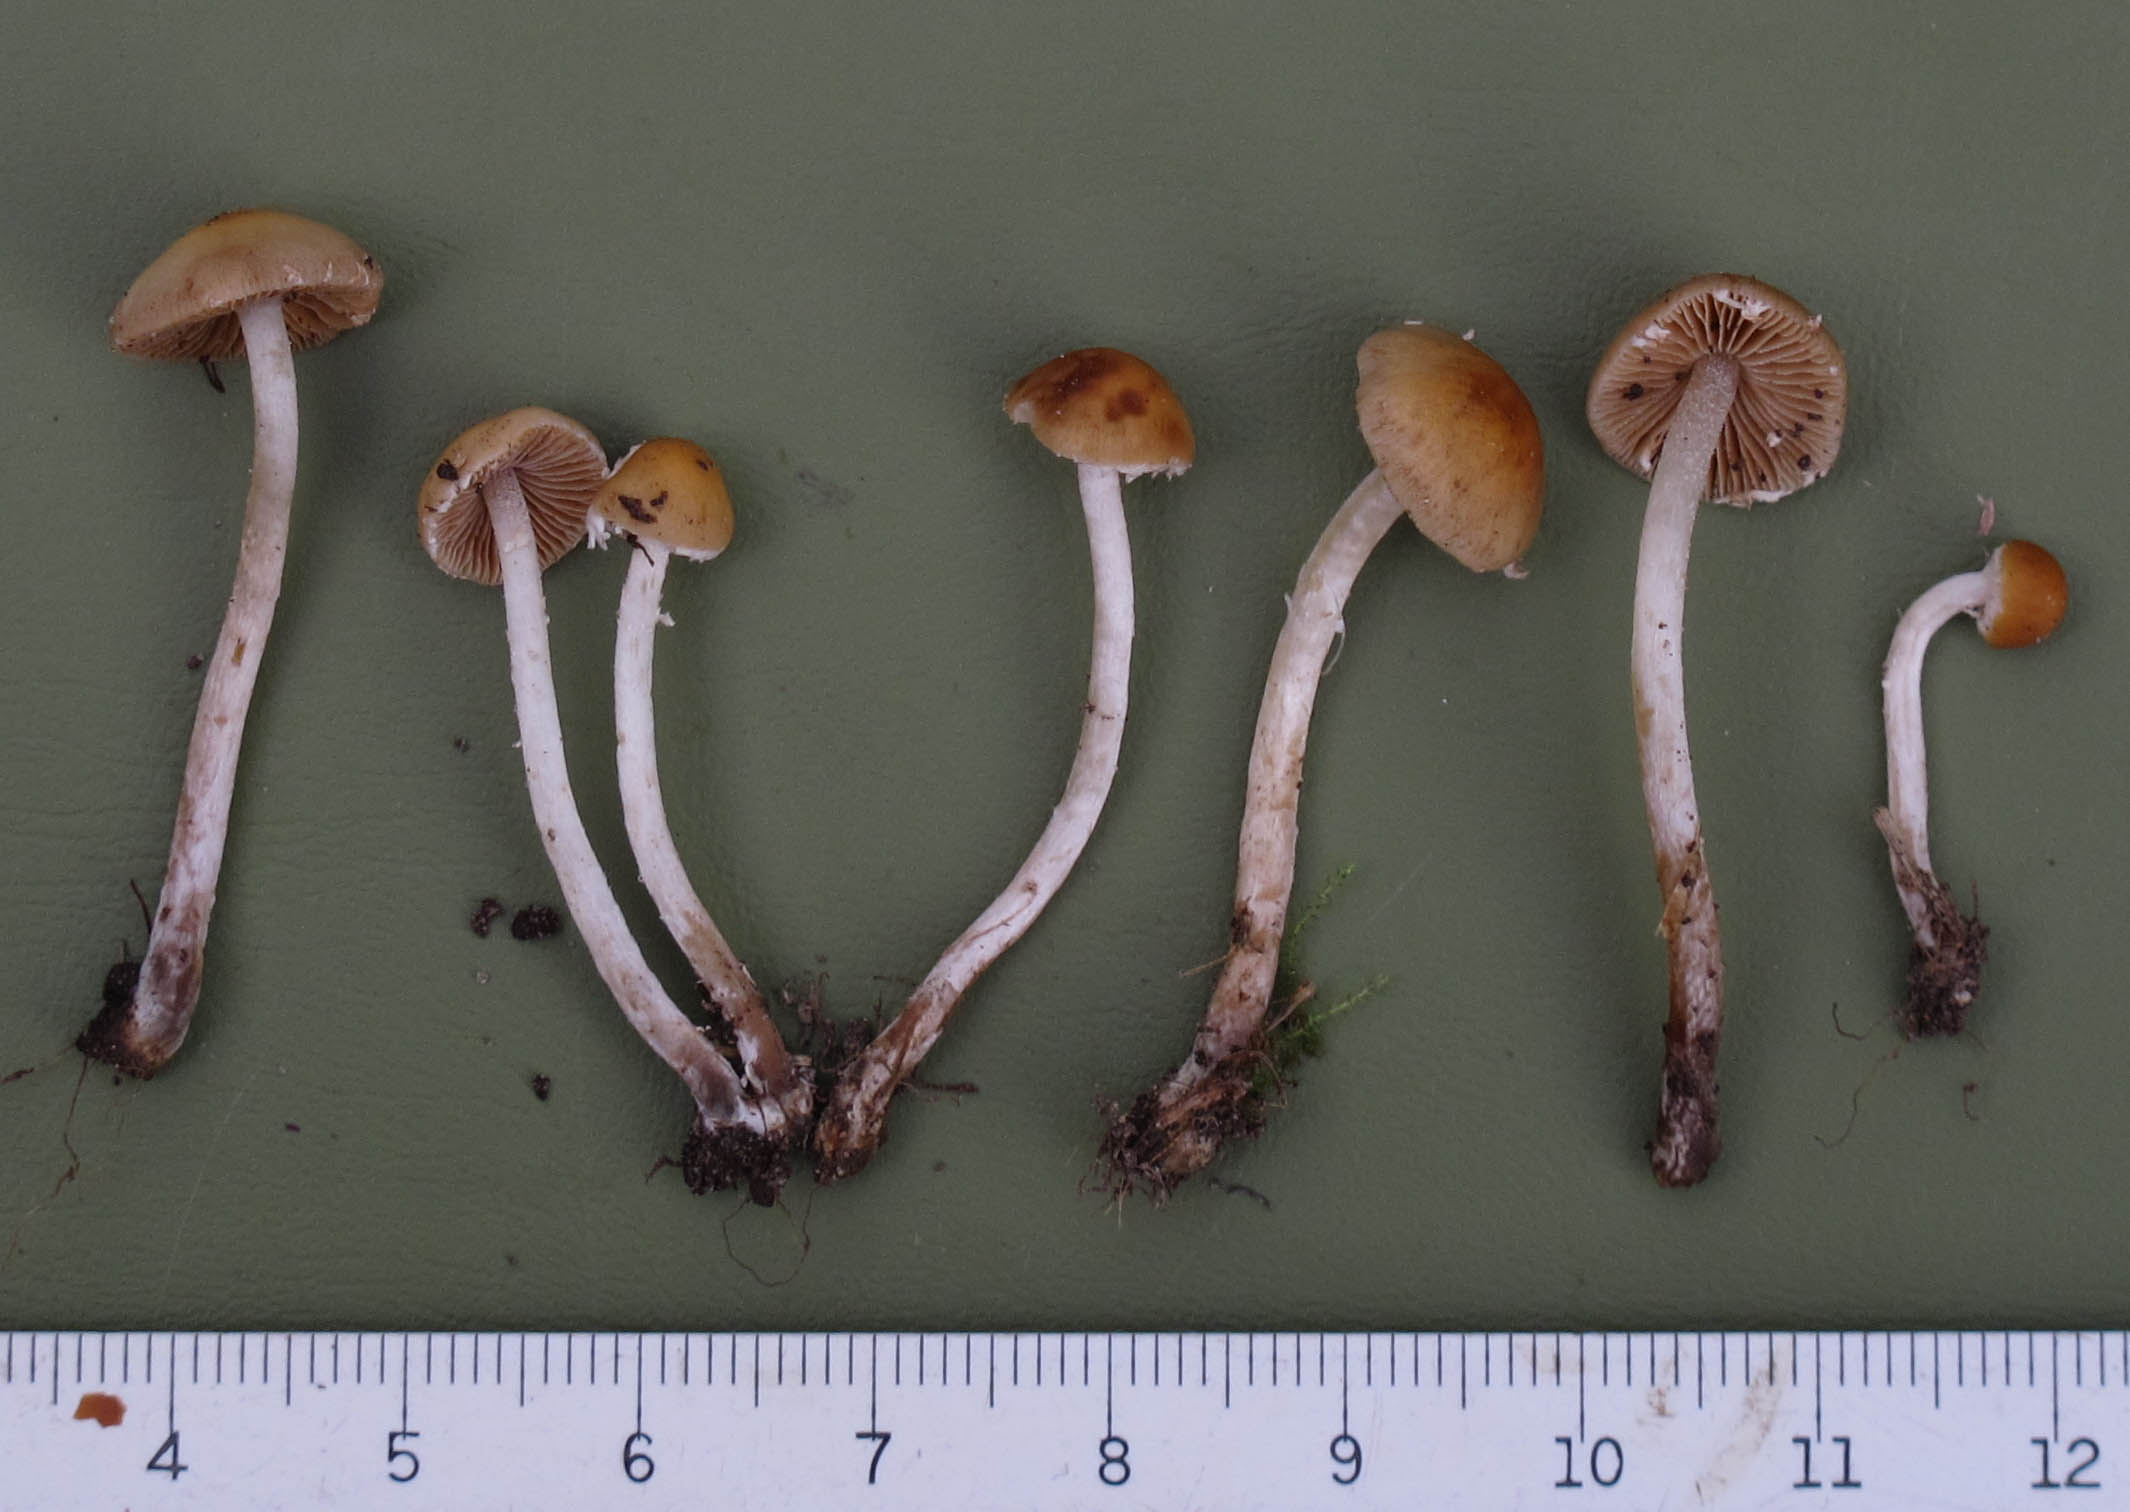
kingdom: Fungi
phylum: Basidiomycota
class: Agaricomycetes
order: Agaricales
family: Bolbitiaceae
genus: Conocybe
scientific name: Conocybe velata
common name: tandet dansehat
